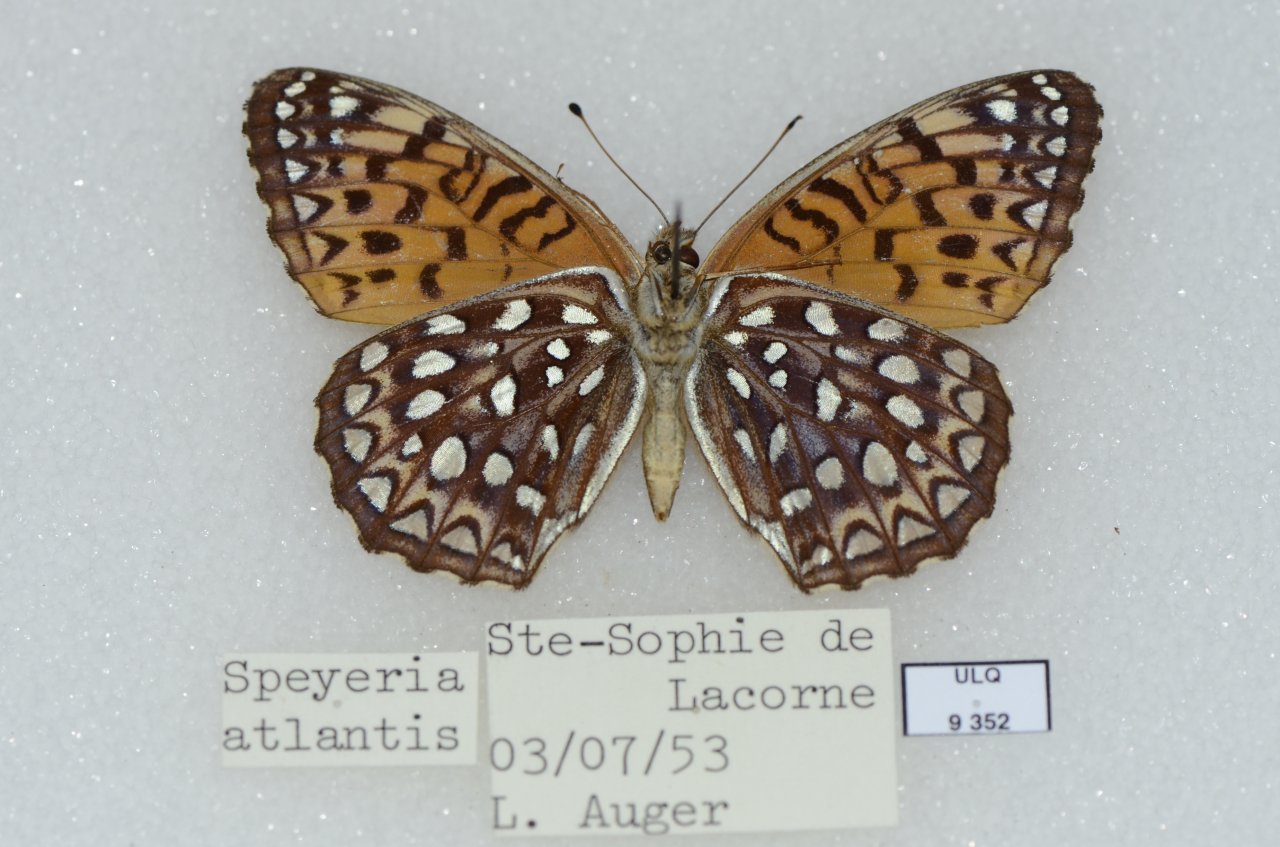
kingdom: Animalia
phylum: Arthropoda
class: Insecta
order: Lepidoptera
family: Nymphalidae
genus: Speyeria
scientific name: Speyeria atlantis
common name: Atlantis Fritillary
